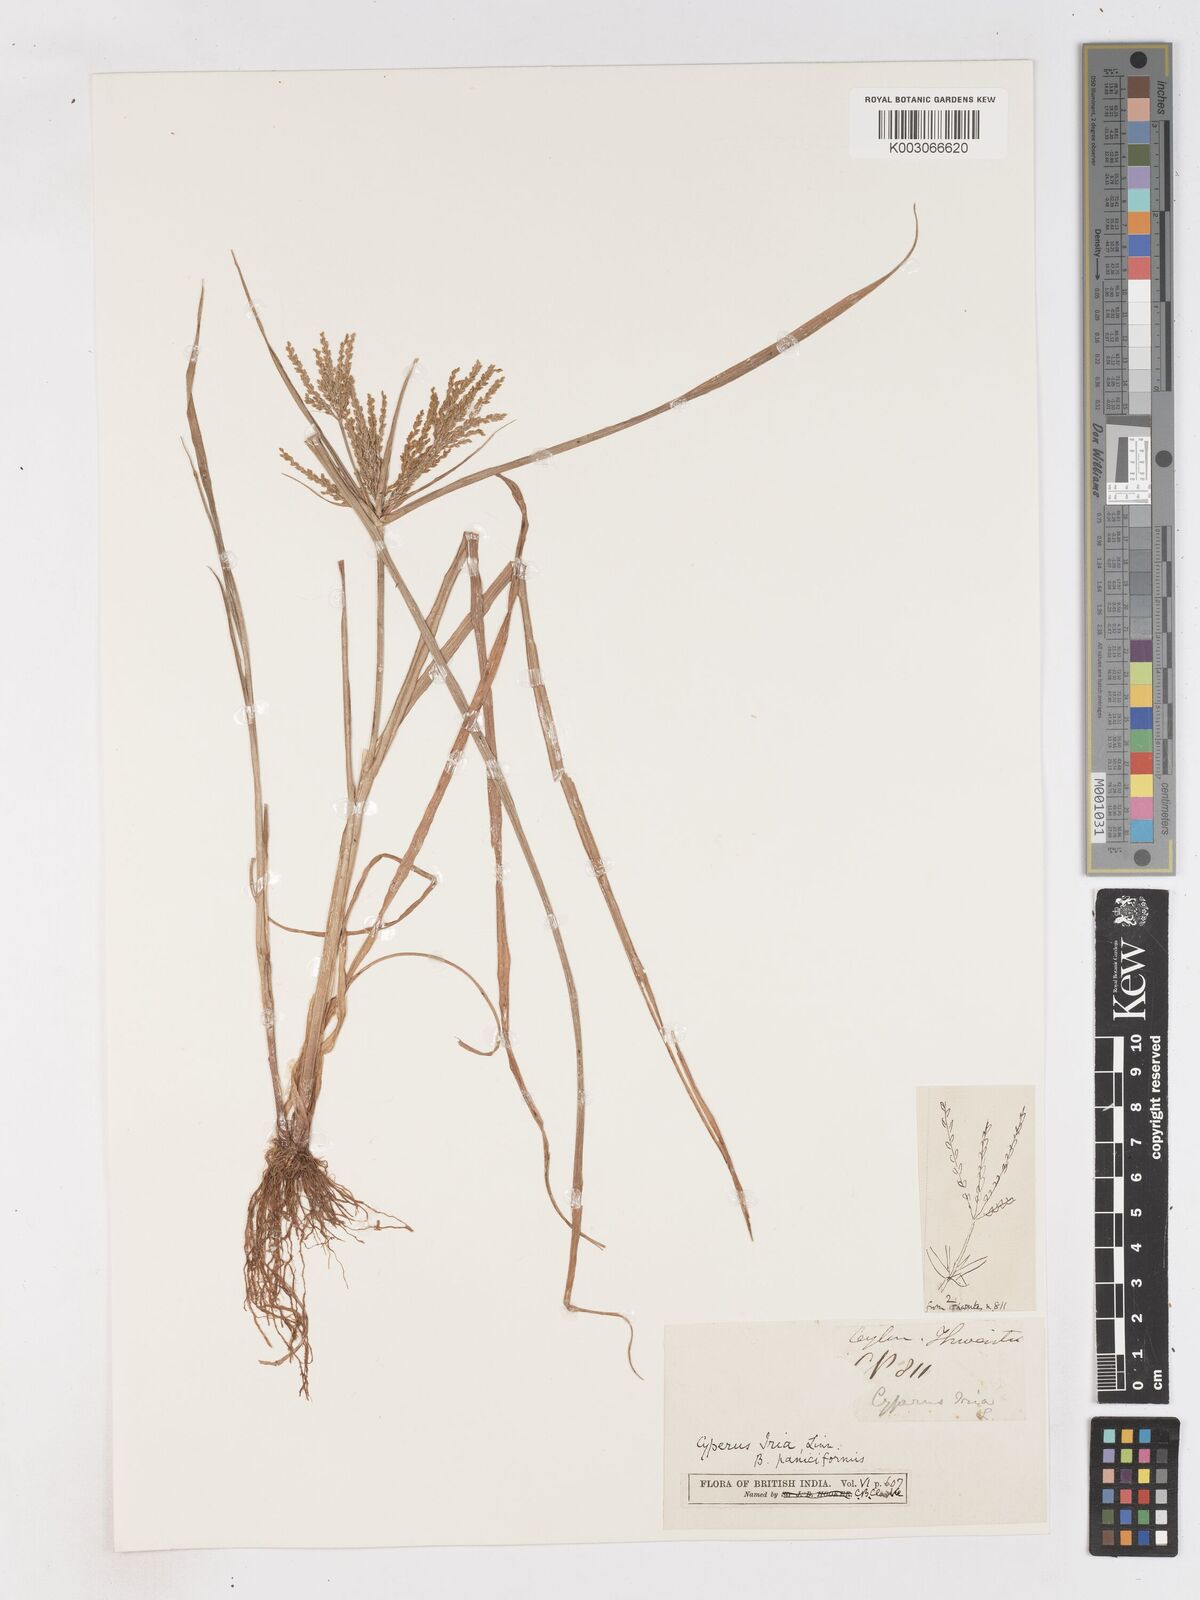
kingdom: Plantae
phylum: Tracheophyta
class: Liliopsida
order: Poales
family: Cyperaceae
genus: Cyperus
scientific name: Cyperus microiria
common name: Asian flatsedge
